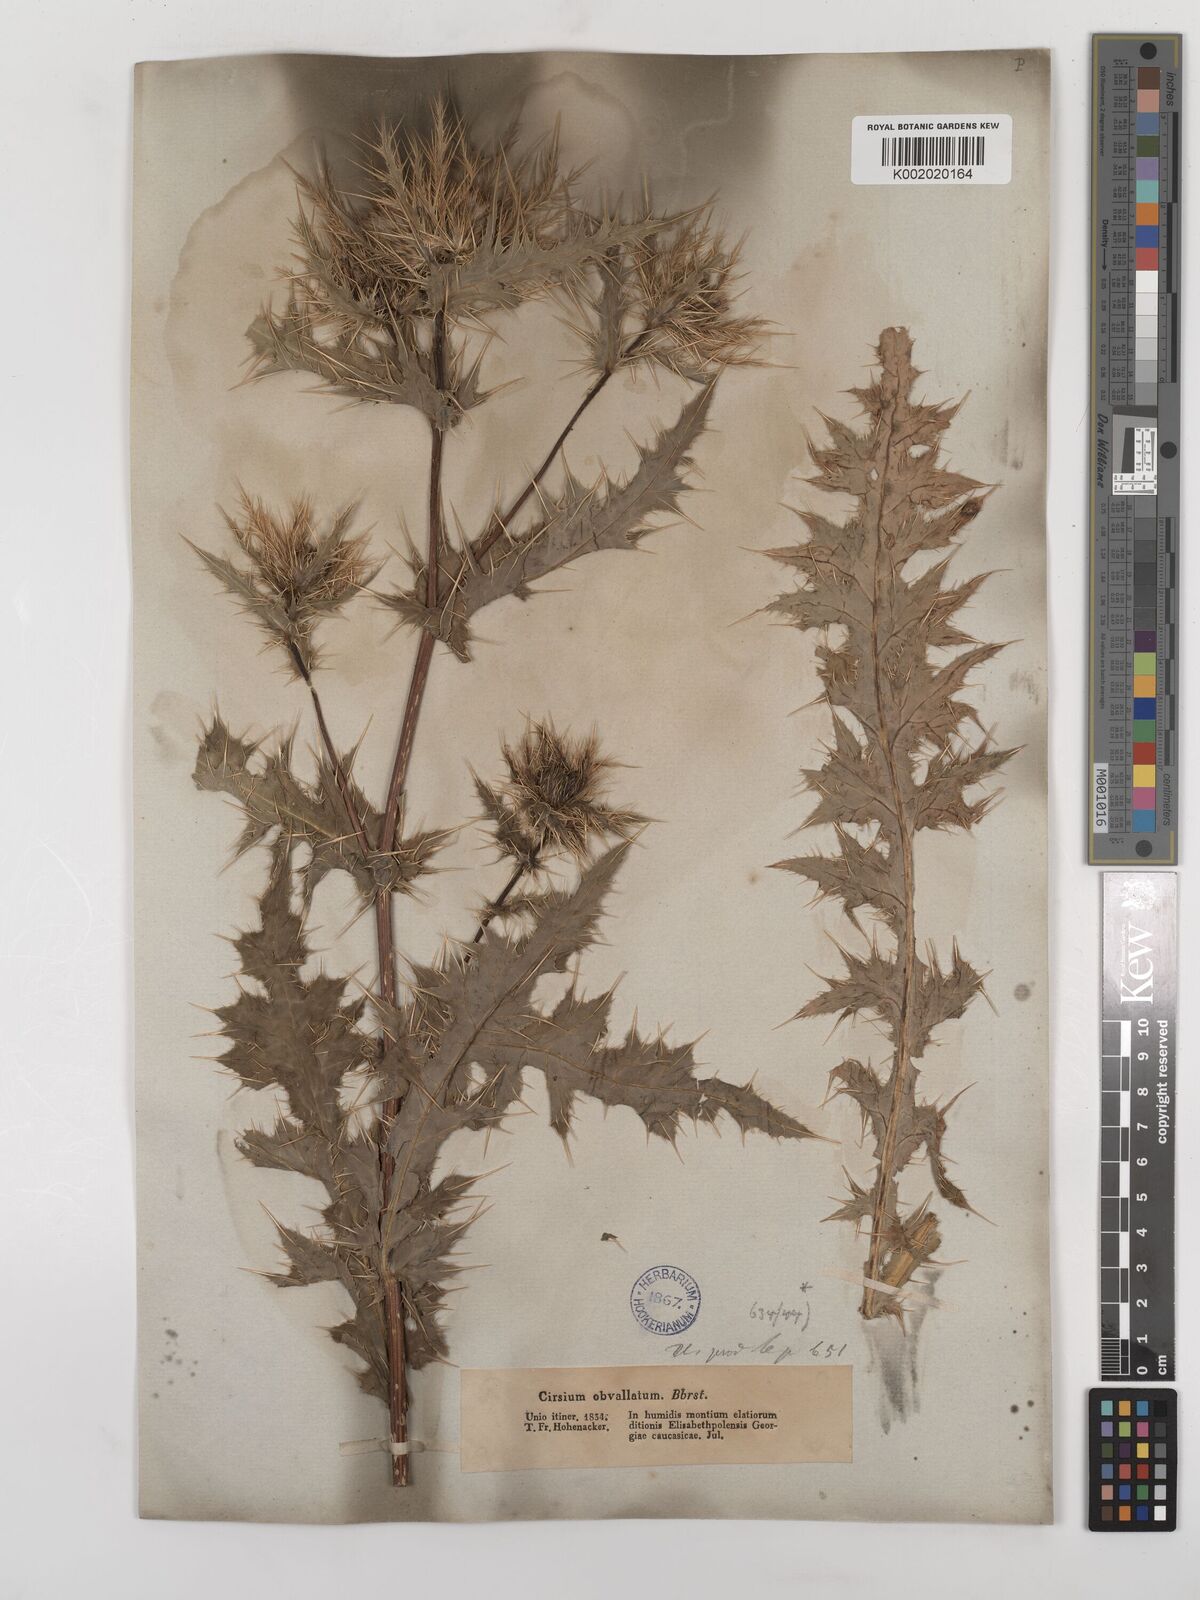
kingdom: Plantae
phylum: Tracheophyta
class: Magnoliopsida
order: Asterales
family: Asteraceae
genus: Cirsium
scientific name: Cirsium obvallatum
